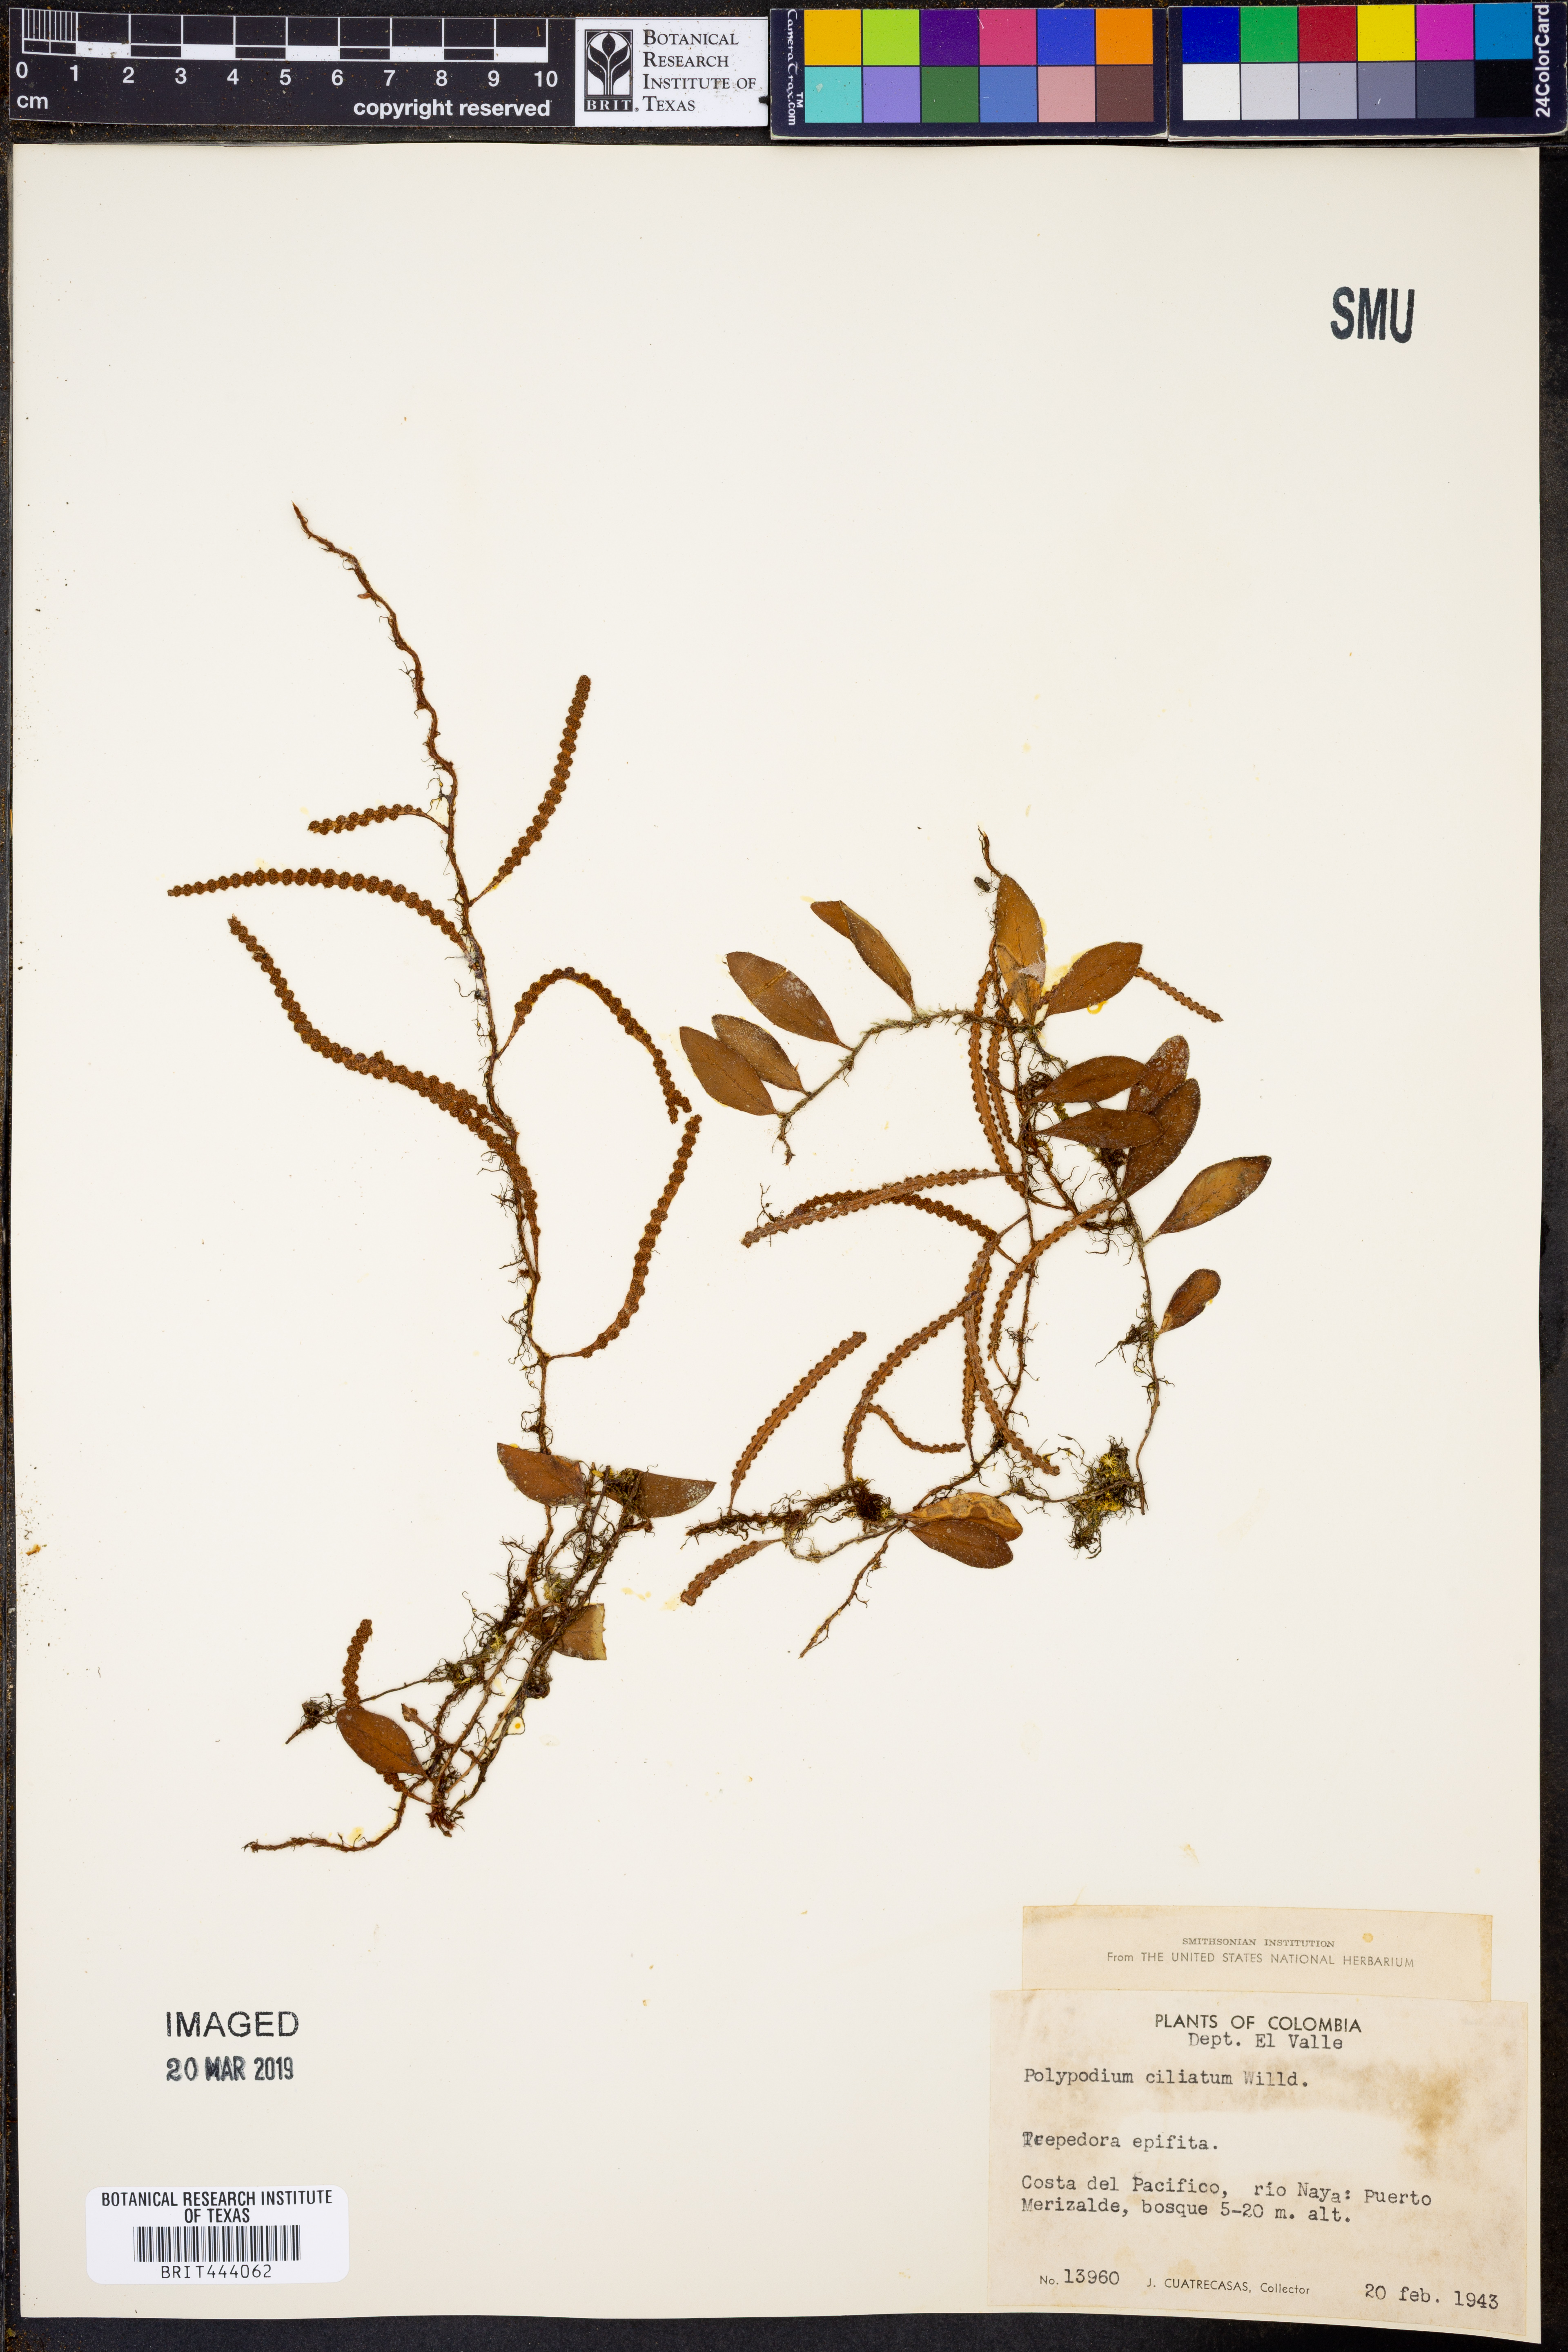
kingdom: Plantae
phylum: Tracheophyta
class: Polypodiopsida
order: Polypodiales
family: Polypodiaceae
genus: Microgramma
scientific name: Microgramma reptans
